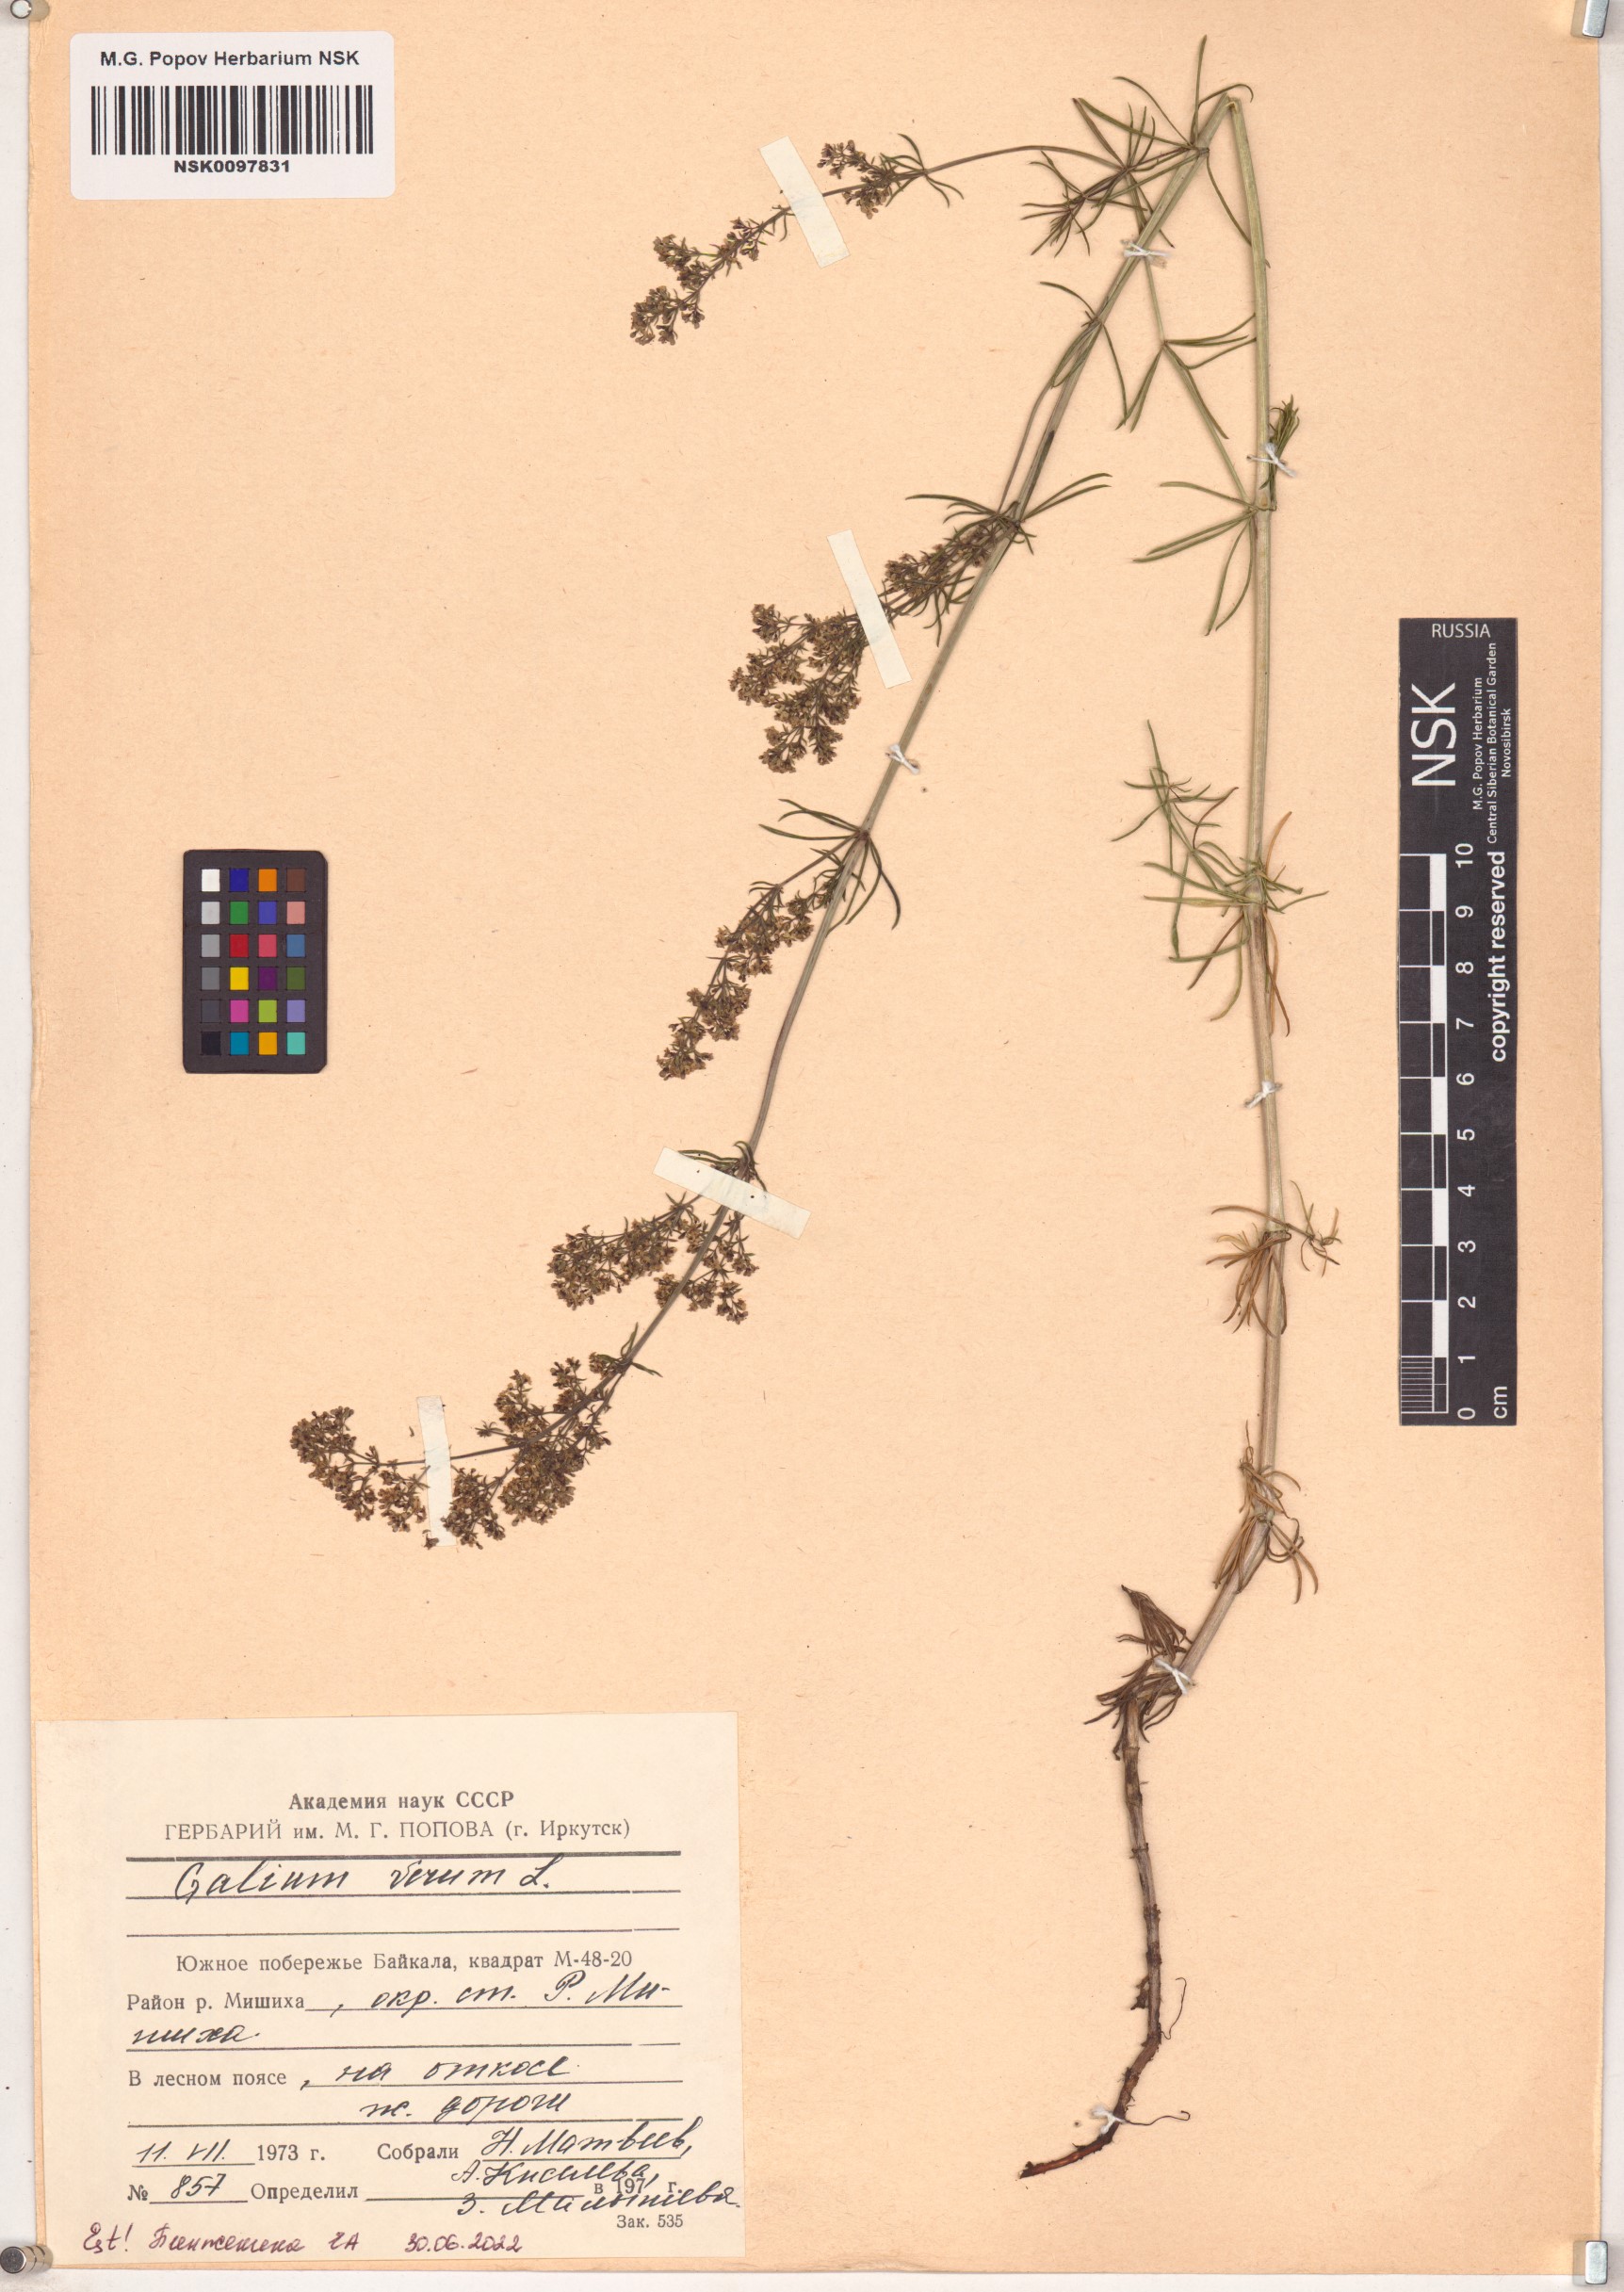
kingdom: Plantae
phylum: Tracheophyta
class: Magnoliopsida
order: Gentianales
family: Rubiaceae
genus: Galium
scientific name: Galium verum
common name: Lady's bedstraw
